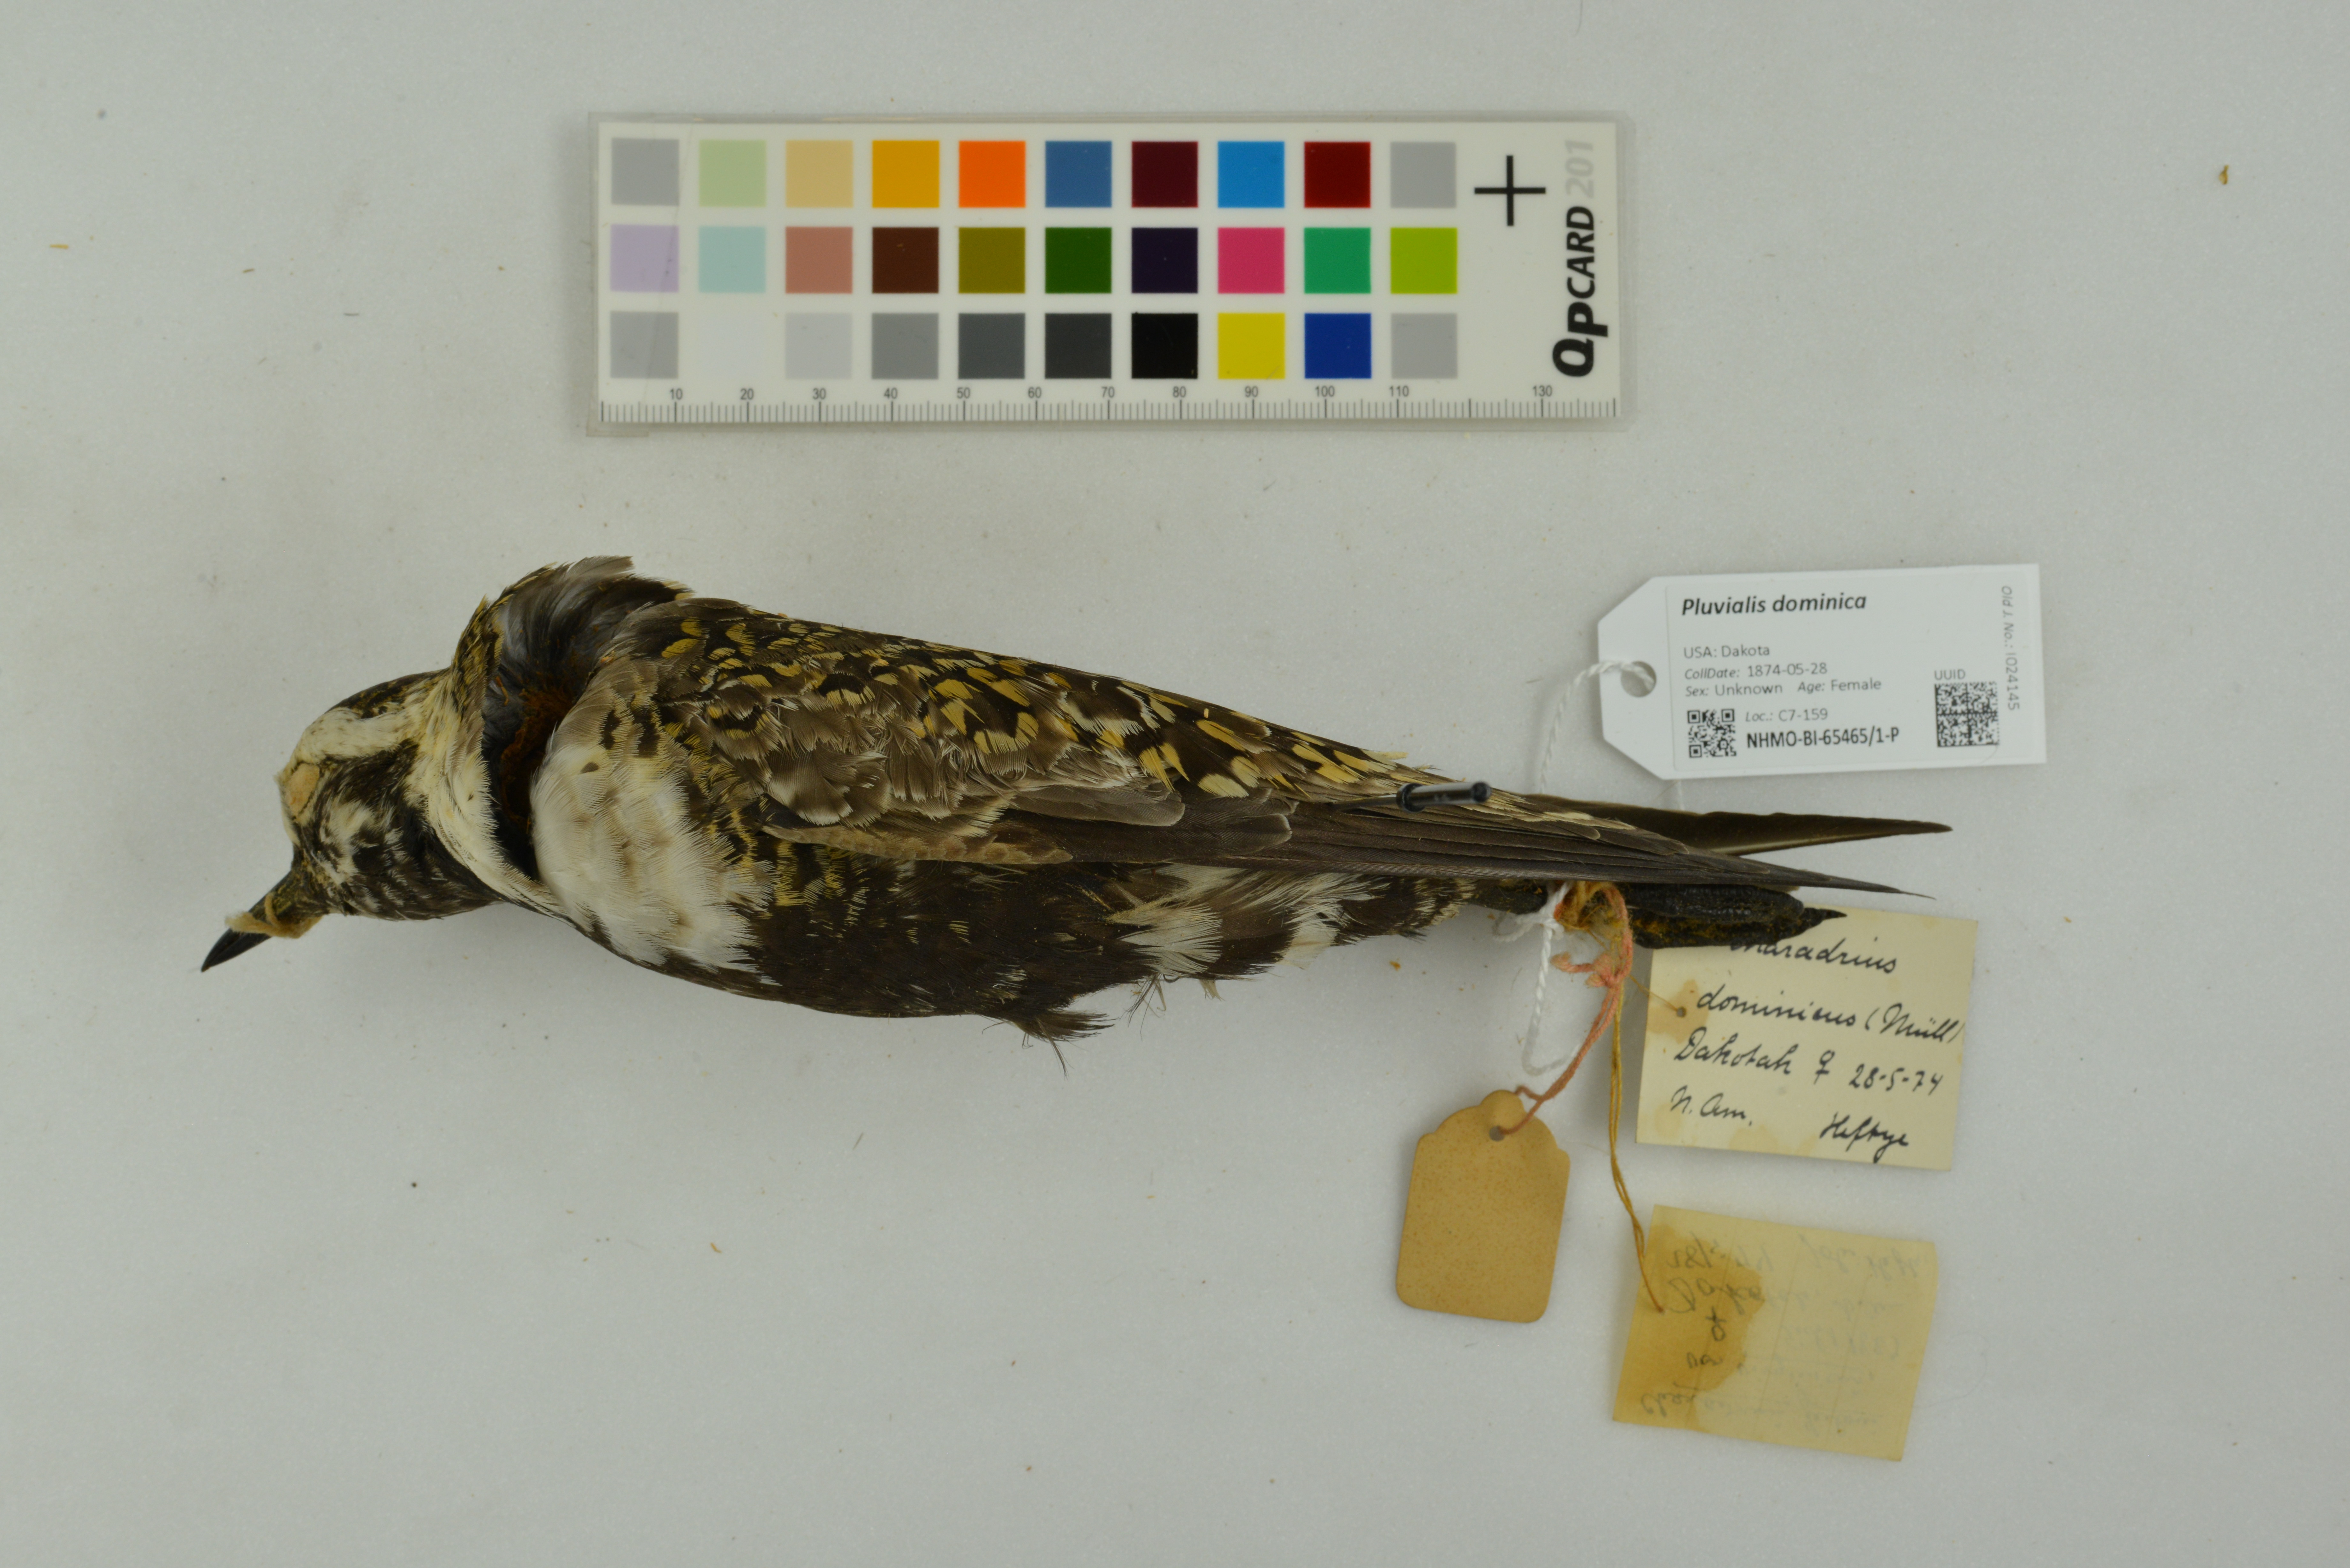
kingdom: Animalia
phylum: Chordata
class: Aves
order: Charadriiformes
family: Charadriidae
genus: Pluvialis
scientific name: Pluvialis dominica
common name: American golden plover
